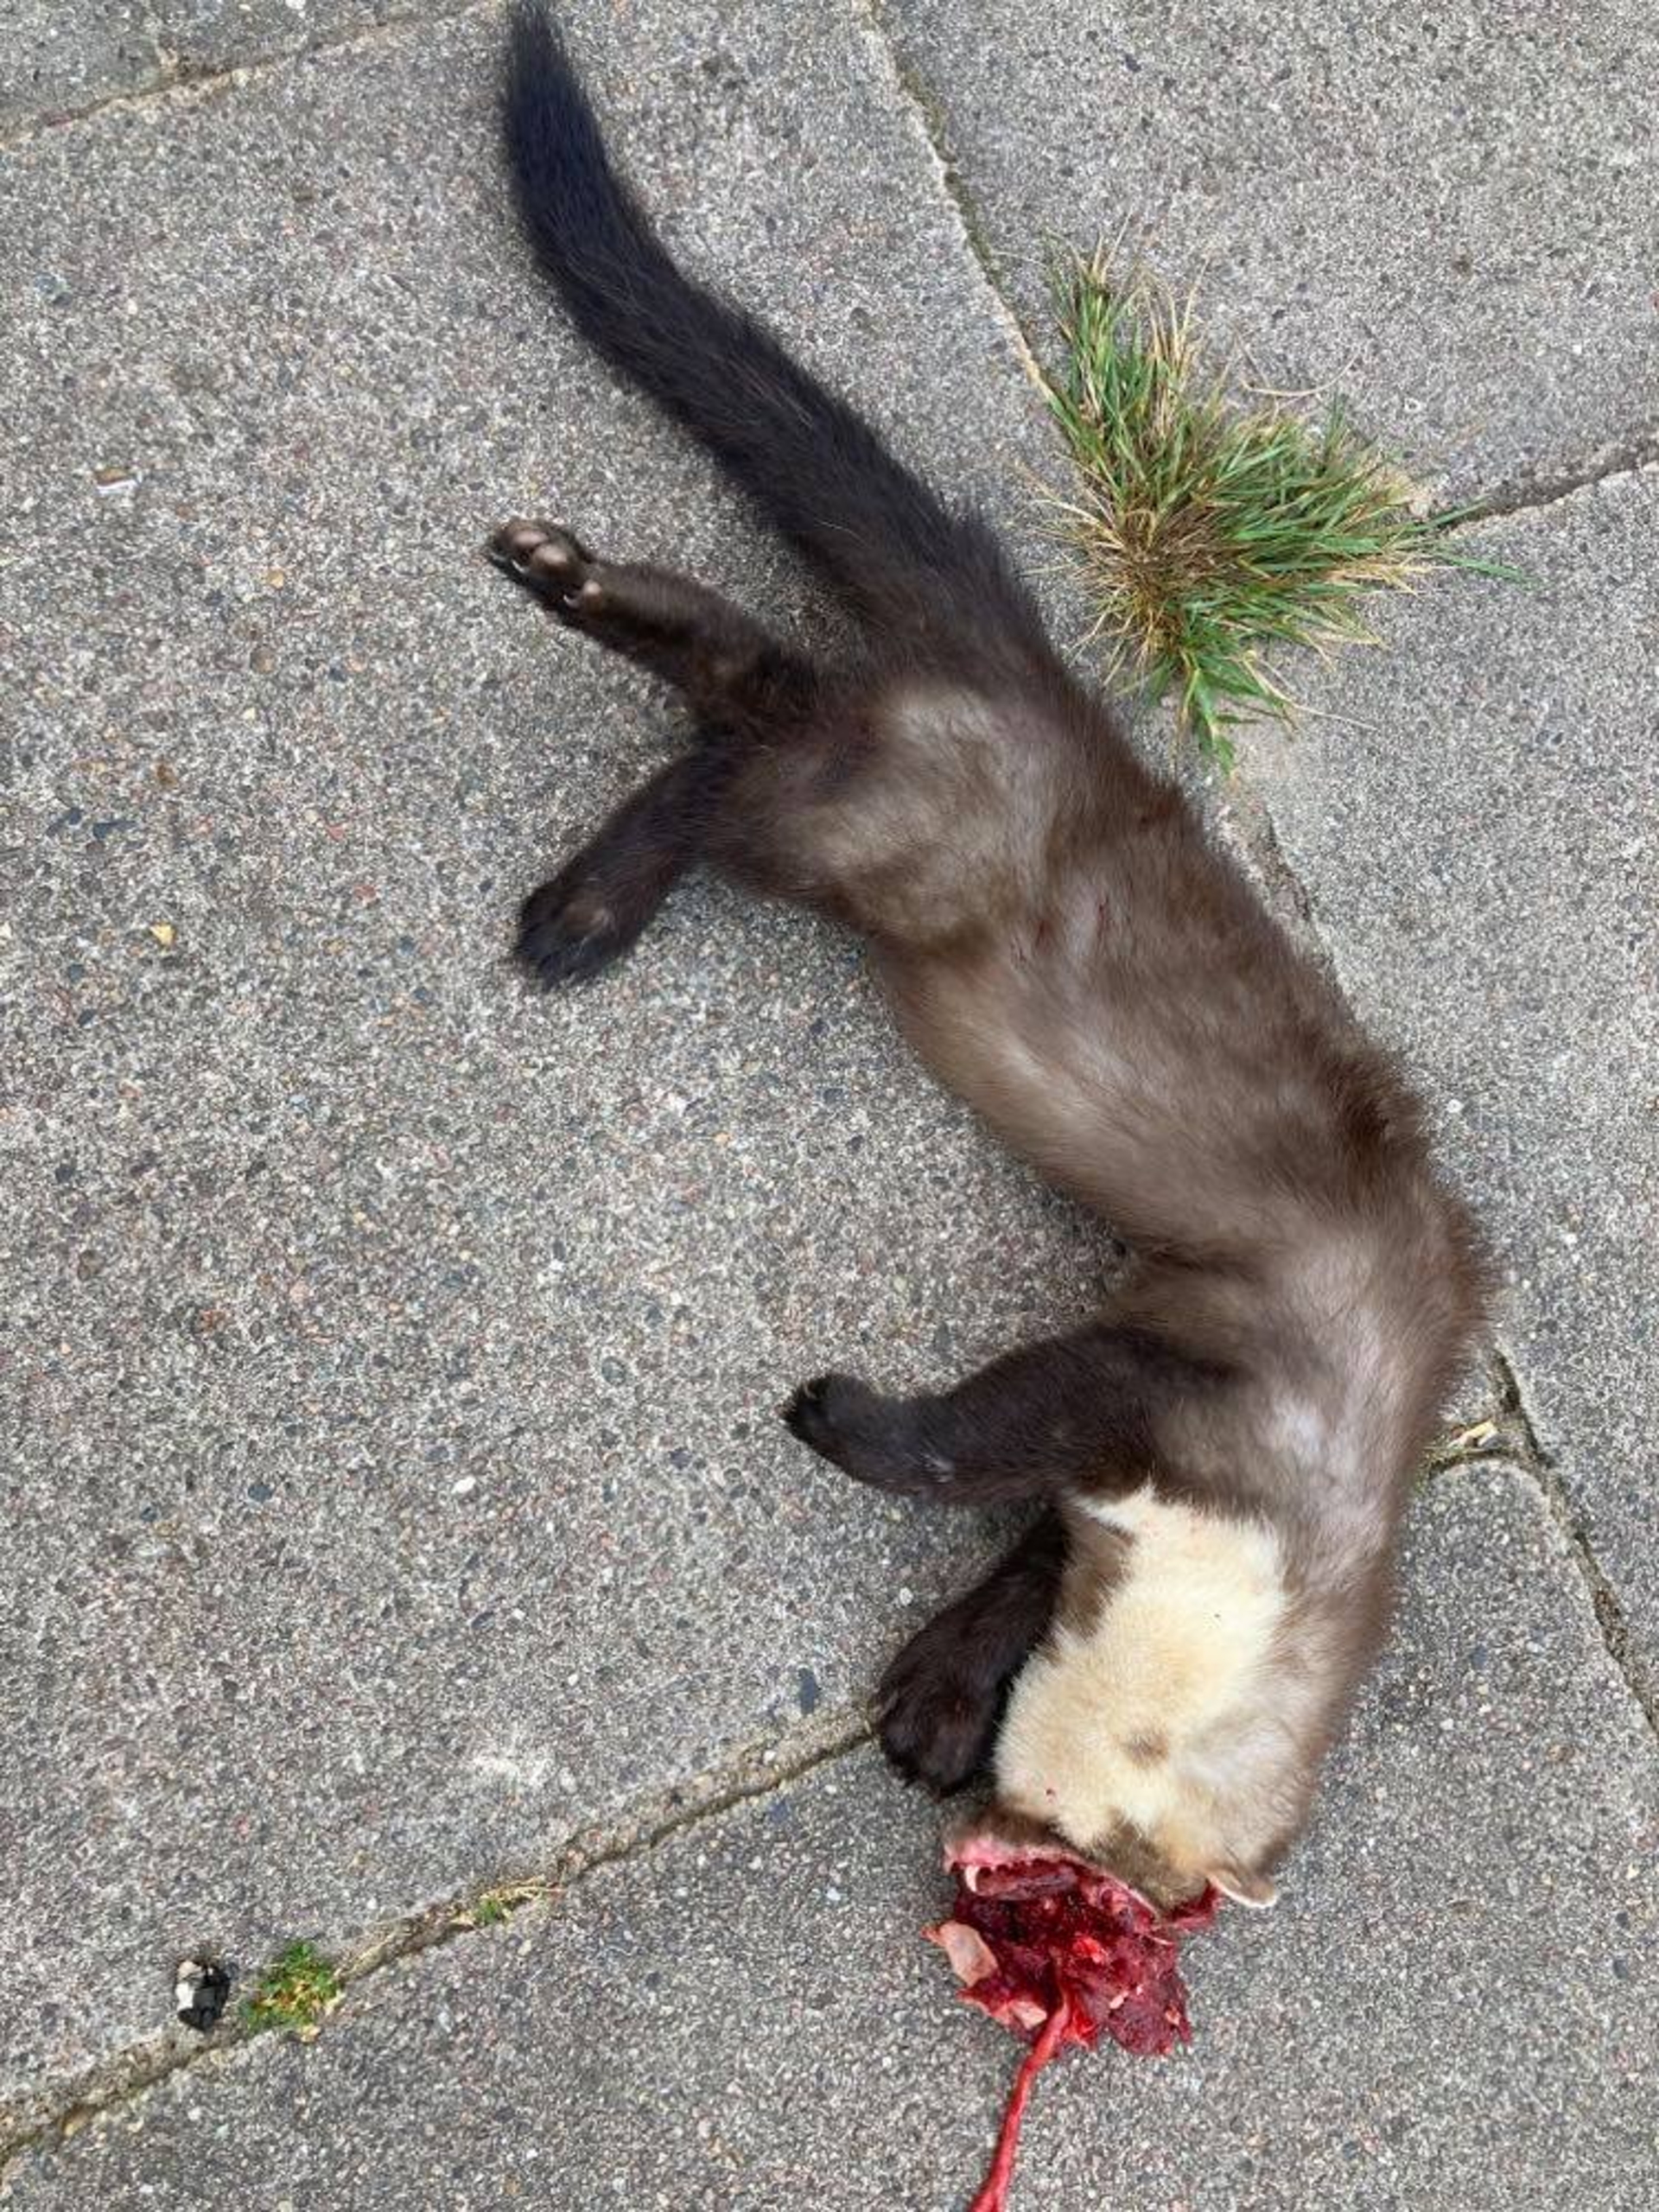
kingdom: Animalia
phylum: Chordata
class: Mammalia
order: Carnivora
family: Mustelidae
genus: Martes
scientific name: Martes foina
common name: Husmår
